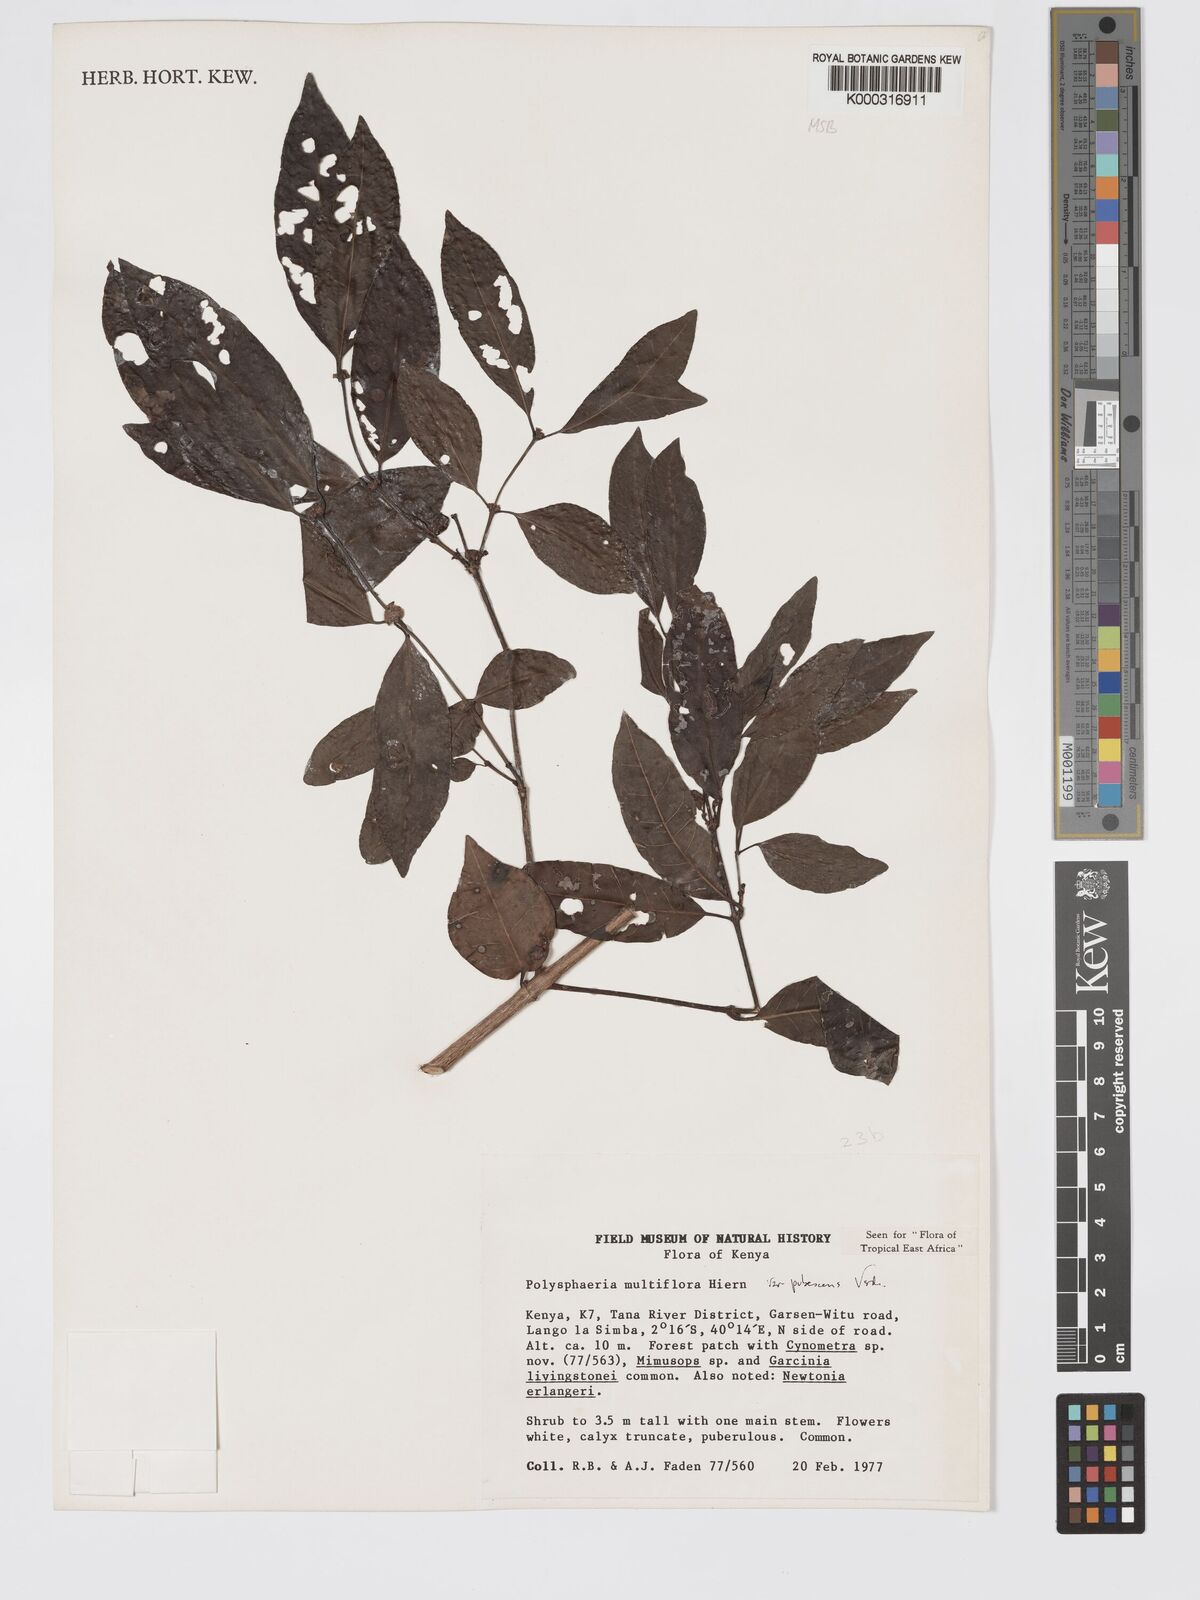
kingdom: Plantae
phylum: Tracheophyta
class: Magnoliopsida
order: Gentianales
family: Rubiaceae
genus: Polysphaeria
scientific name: Polysphaeria multiflora
